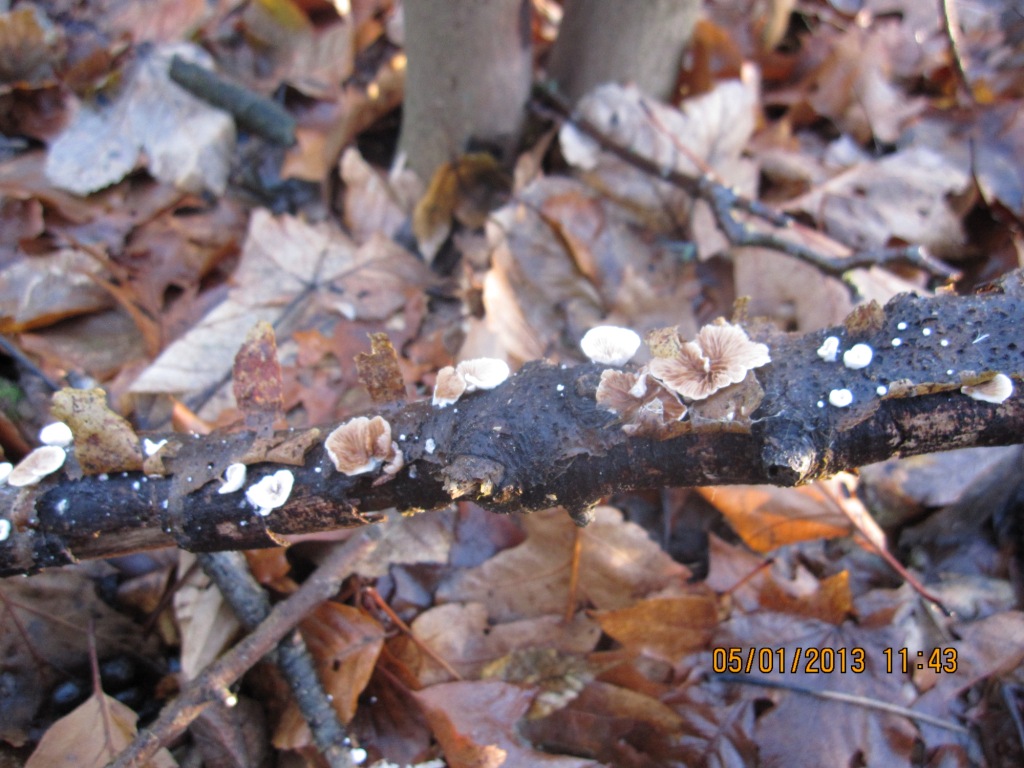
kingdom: Fungi
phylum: Basidiomycota
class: Agaricomycetes
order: Agaricales
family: Crepidotaceae
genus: Crepidotus
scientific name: Crepidotus variabilis
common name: forskelligformet muslingesvamp
